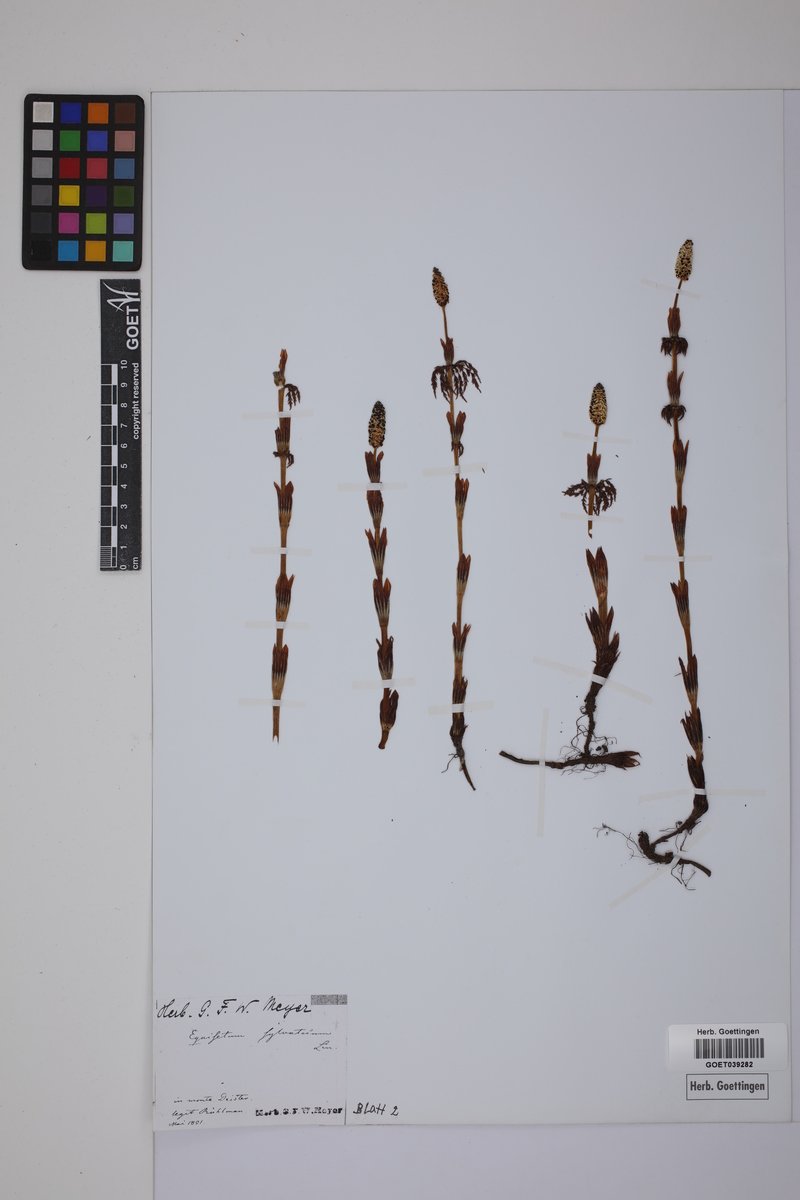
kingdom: Plantae
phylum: Tracheophyta
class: Polypodiopsida
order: Equisetales
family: Equisetaceae
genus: Equisetum
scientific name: Equisetum sylvaticum
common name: Wood horsetail
